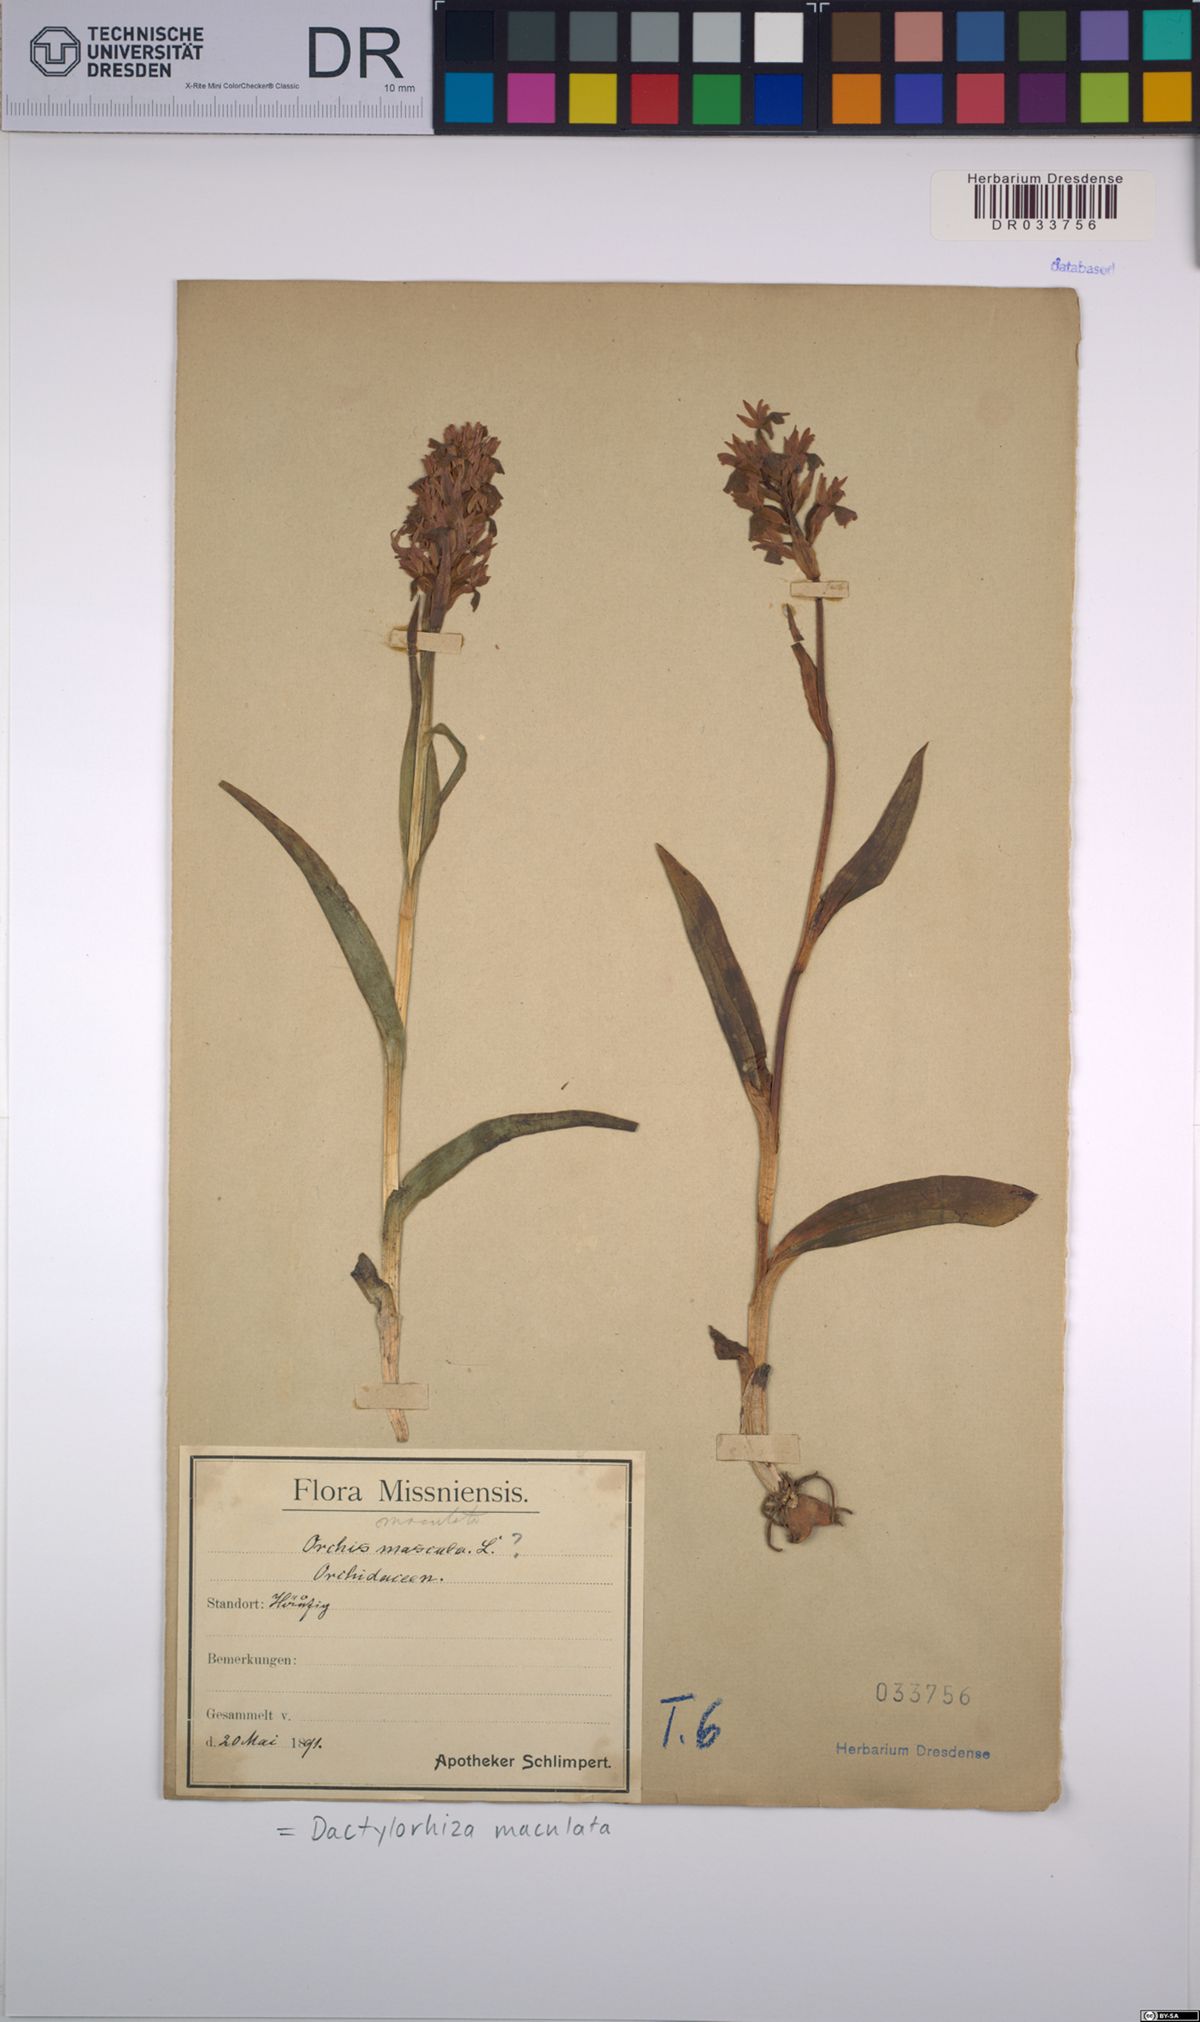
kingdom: Plantae
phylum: Tracheophyta
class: Liliopsida
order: Asparagales
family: Orchidaceae
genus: Dactylorhiza
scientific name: Dactylorhiza maculata
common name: Heath spotted-orchid
